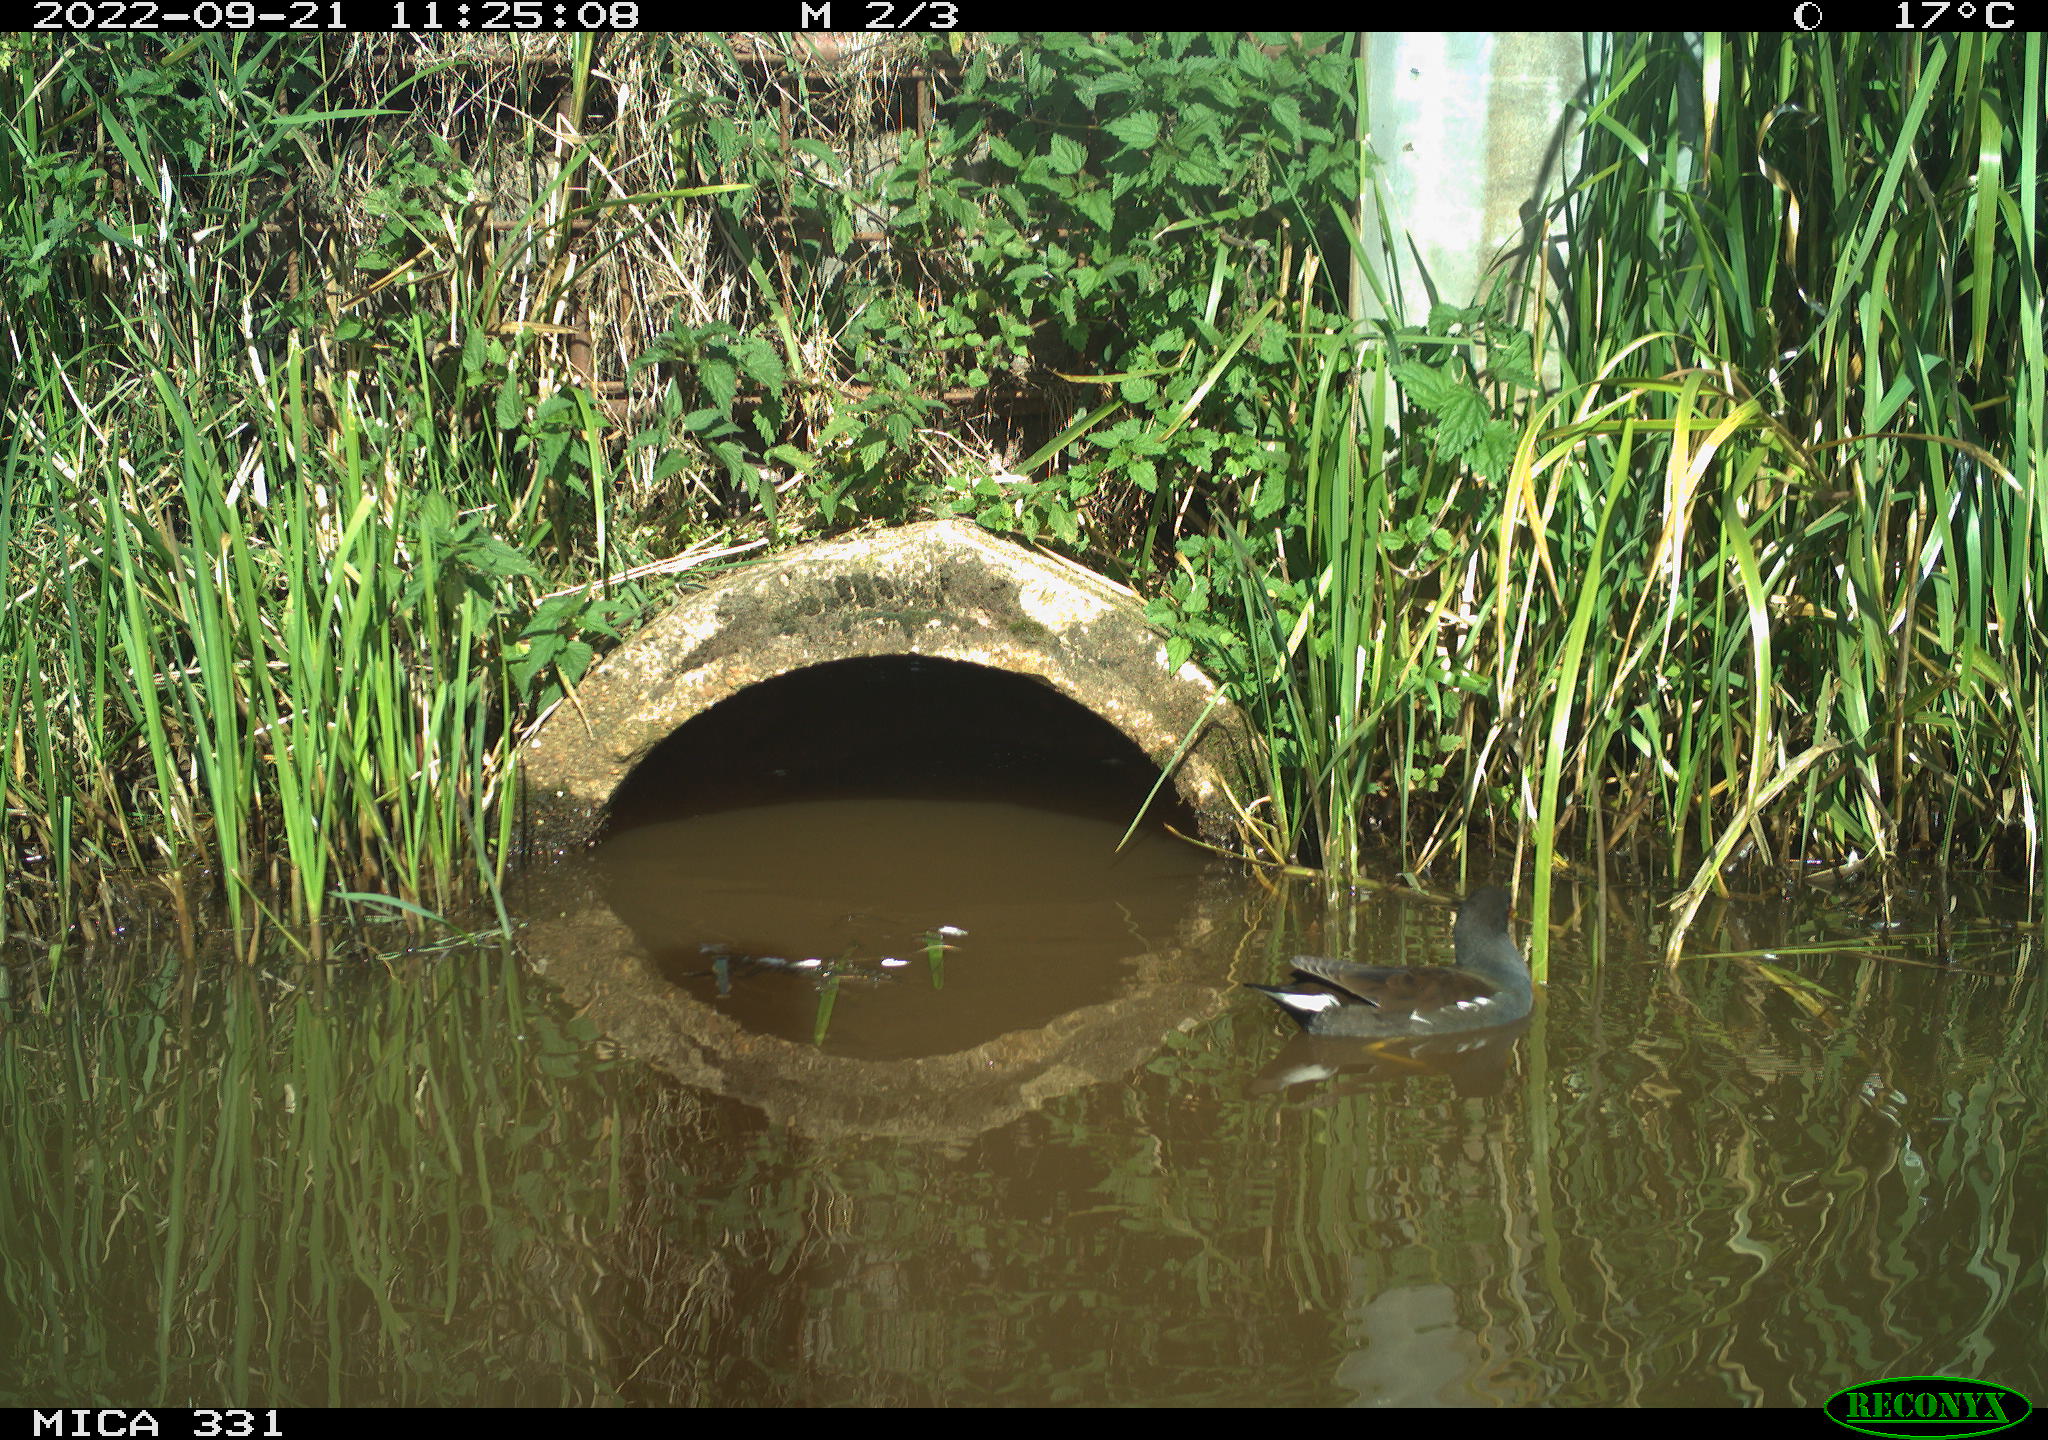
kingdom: Animalia
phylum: Chordata
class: Aves
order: Gruiformes
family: Rallidae
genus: Gallinula
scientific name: Gallinula chloropus
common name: Common moorhen
